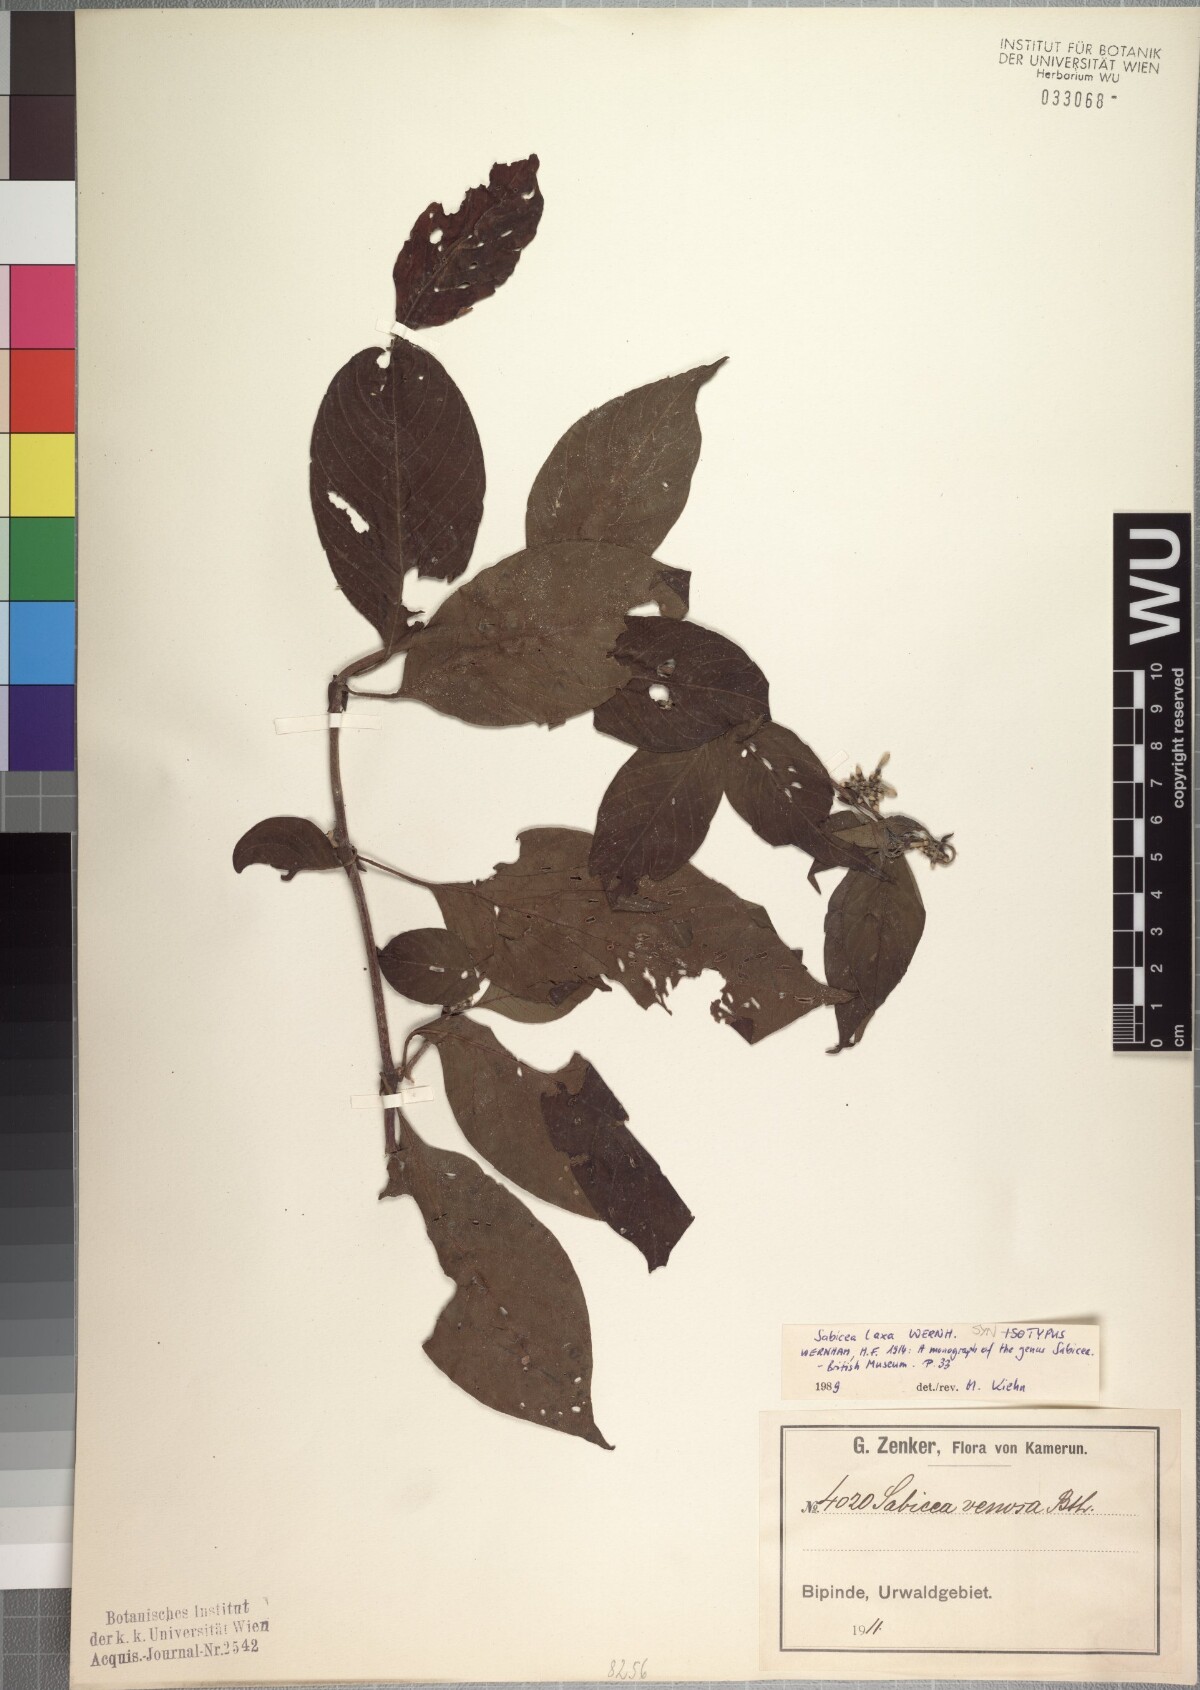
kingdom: Plantae
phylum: Tracheophyta
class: Magnoliopsida
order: Gentianales
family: Rubiaceae
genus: Sabicea
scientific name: Sabicea laxa
